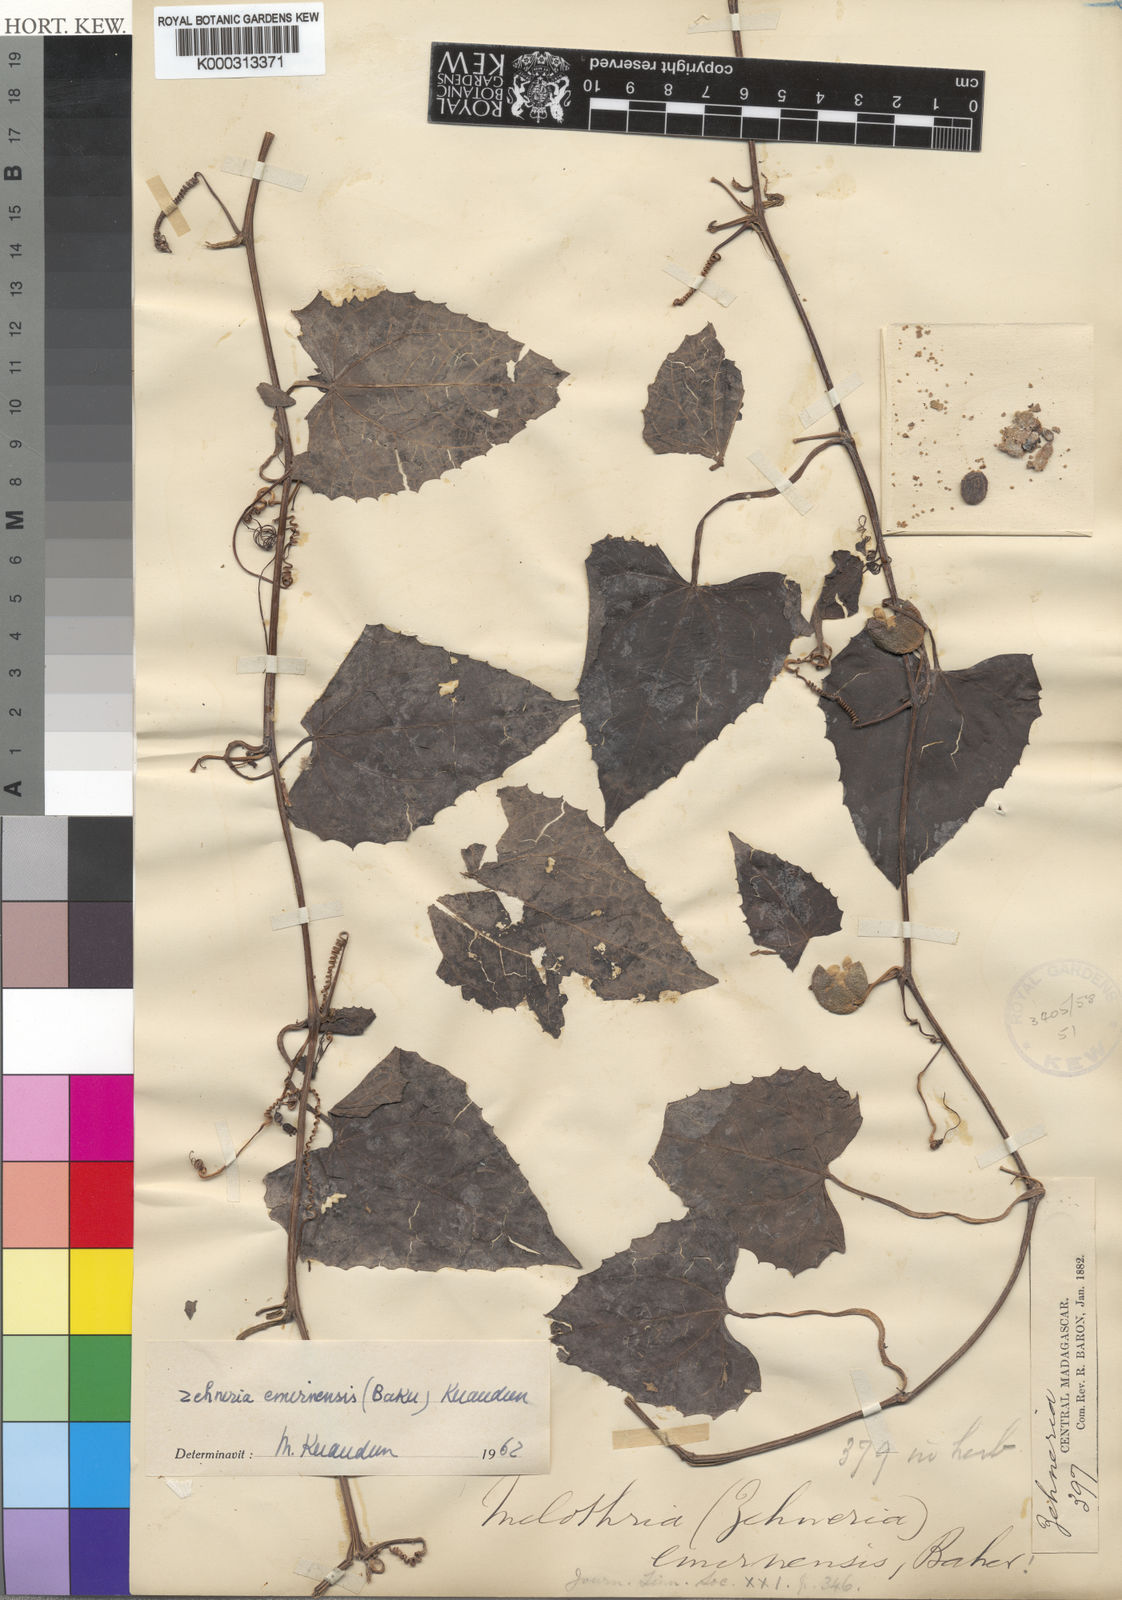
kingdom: Plantae
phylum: Tracheophyta
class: Magnoliopsida
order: Cucurbitales
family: Cucurbitaceae
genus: Zehneria
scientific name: Zehneria emirnensis
